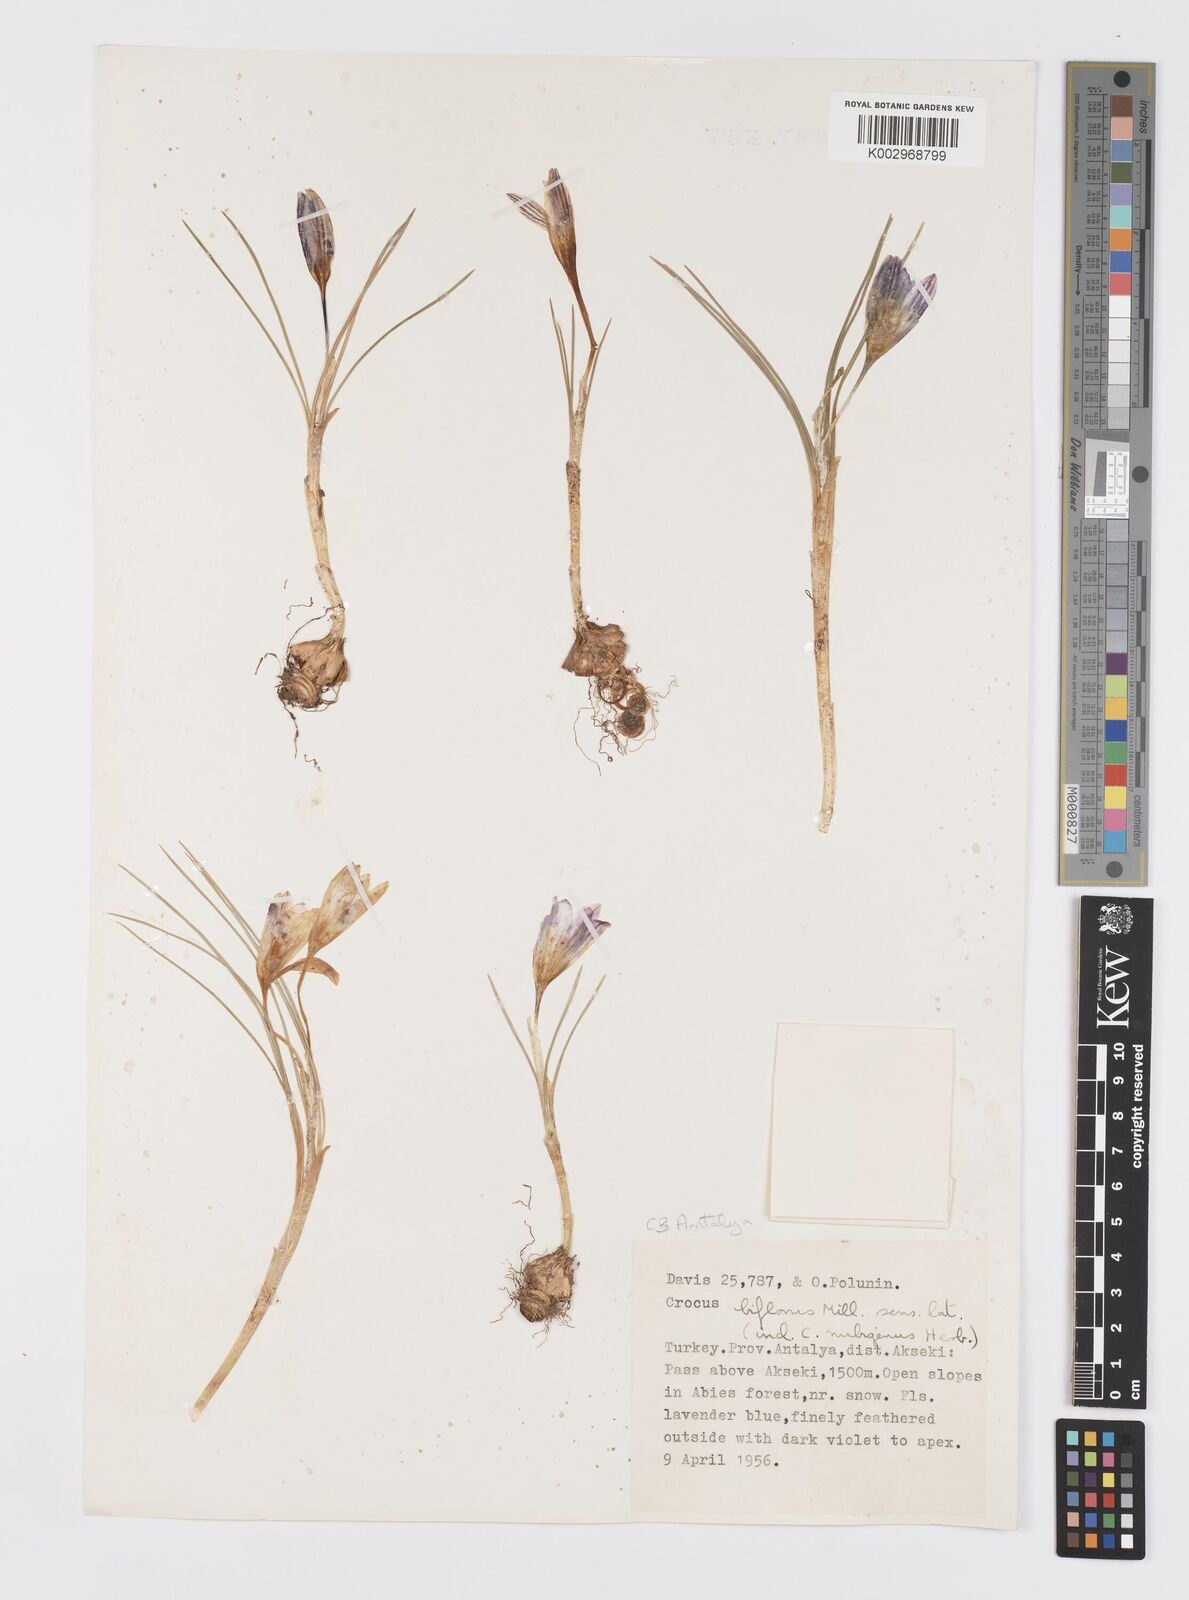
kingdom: Plantae
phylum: Tracheophyta
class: Liliopsida
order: Asparagales
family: Iridaceae
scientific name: Iridaceae
